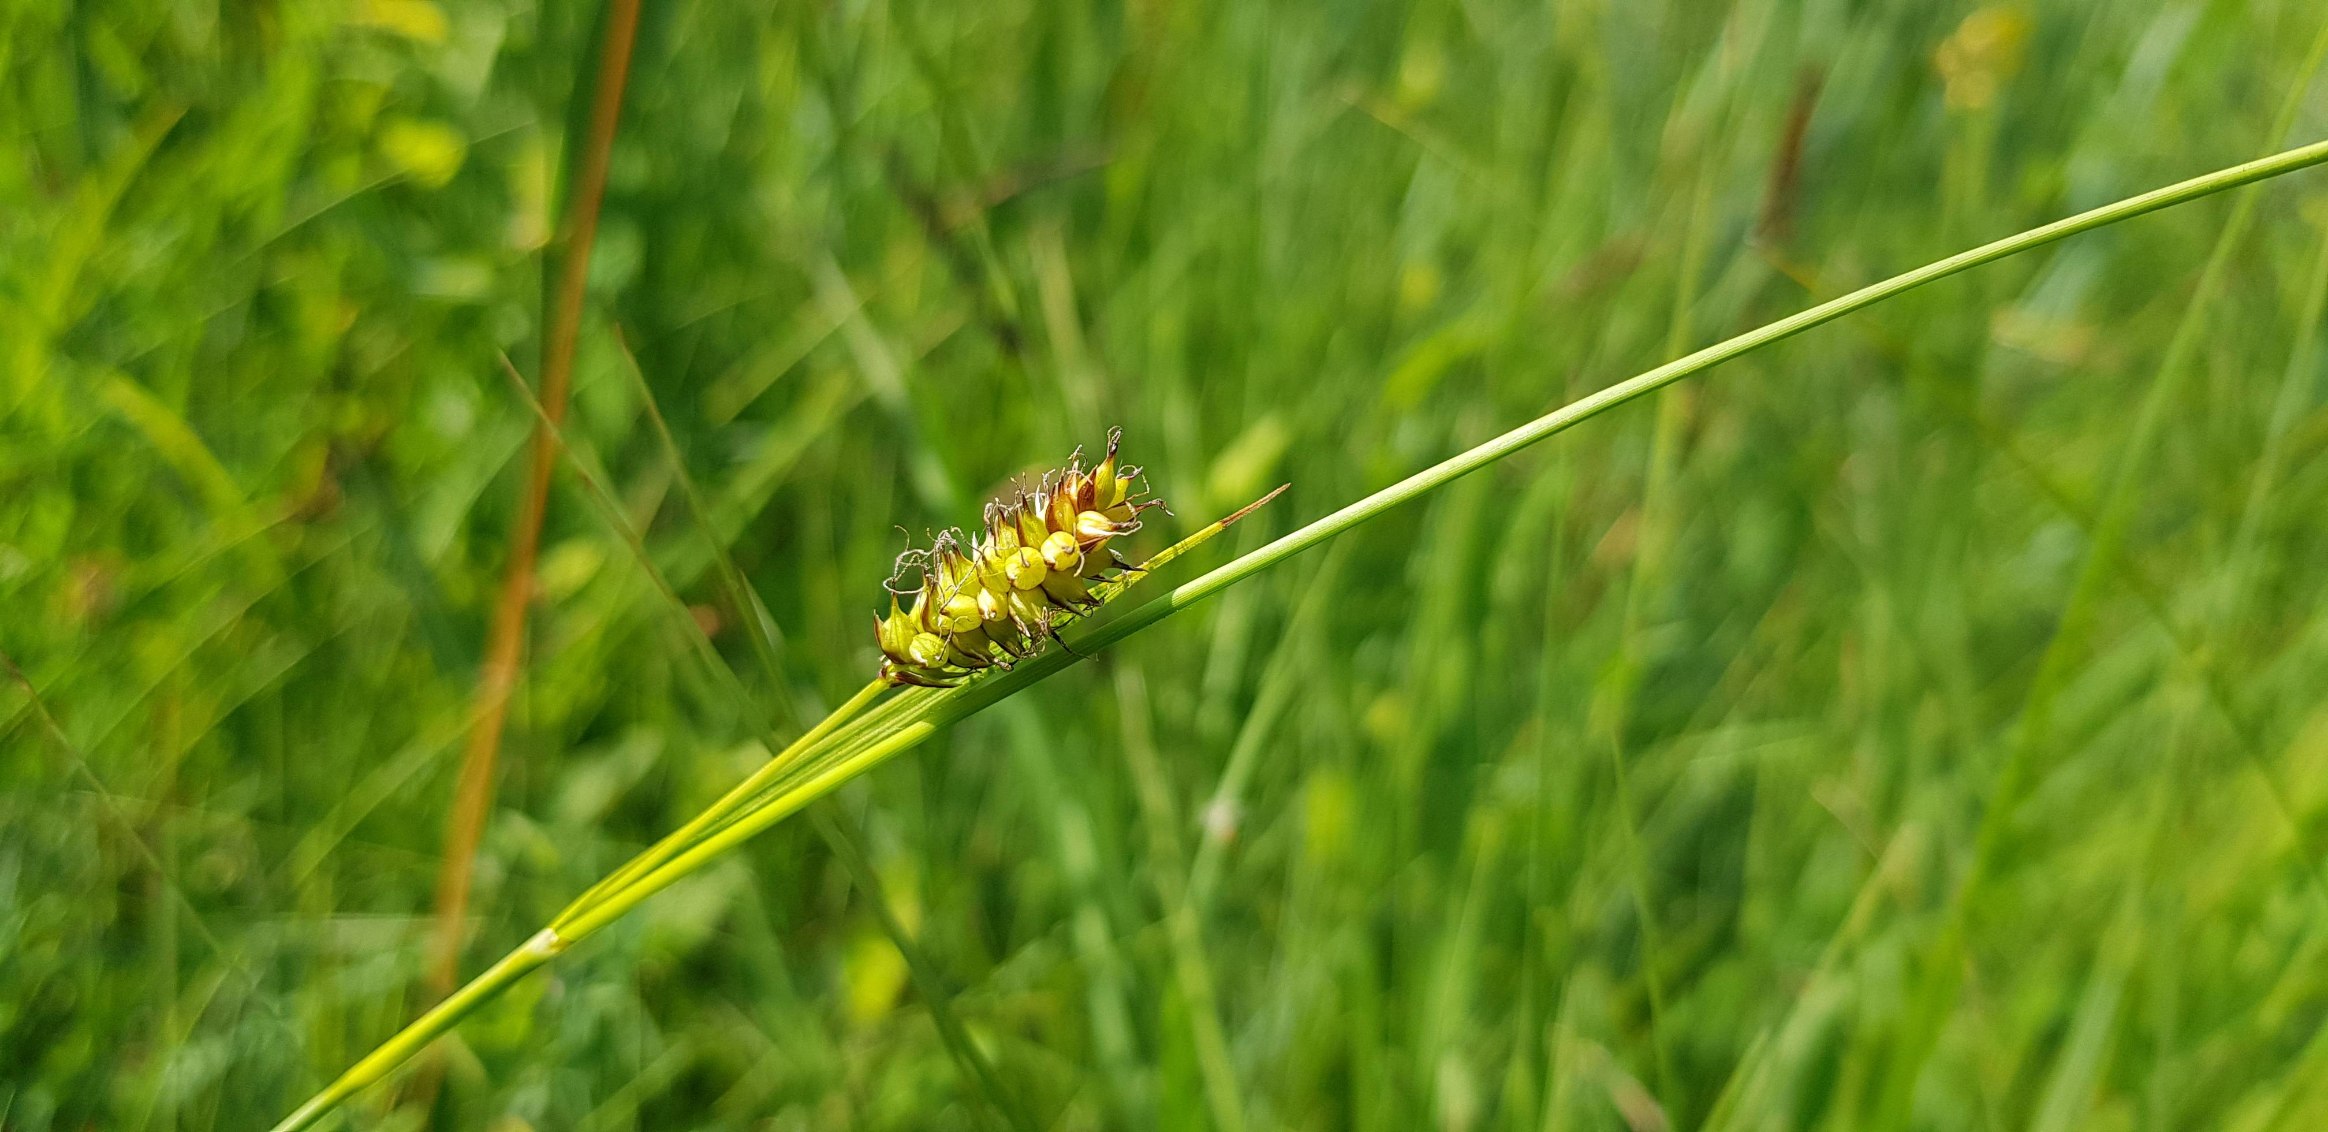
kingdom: Plantae
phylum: Tracheophyta
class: Liliopsida
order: Poales
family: Cyperaceae
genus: Carex
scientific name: Carex hostiana
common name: Skede-star
